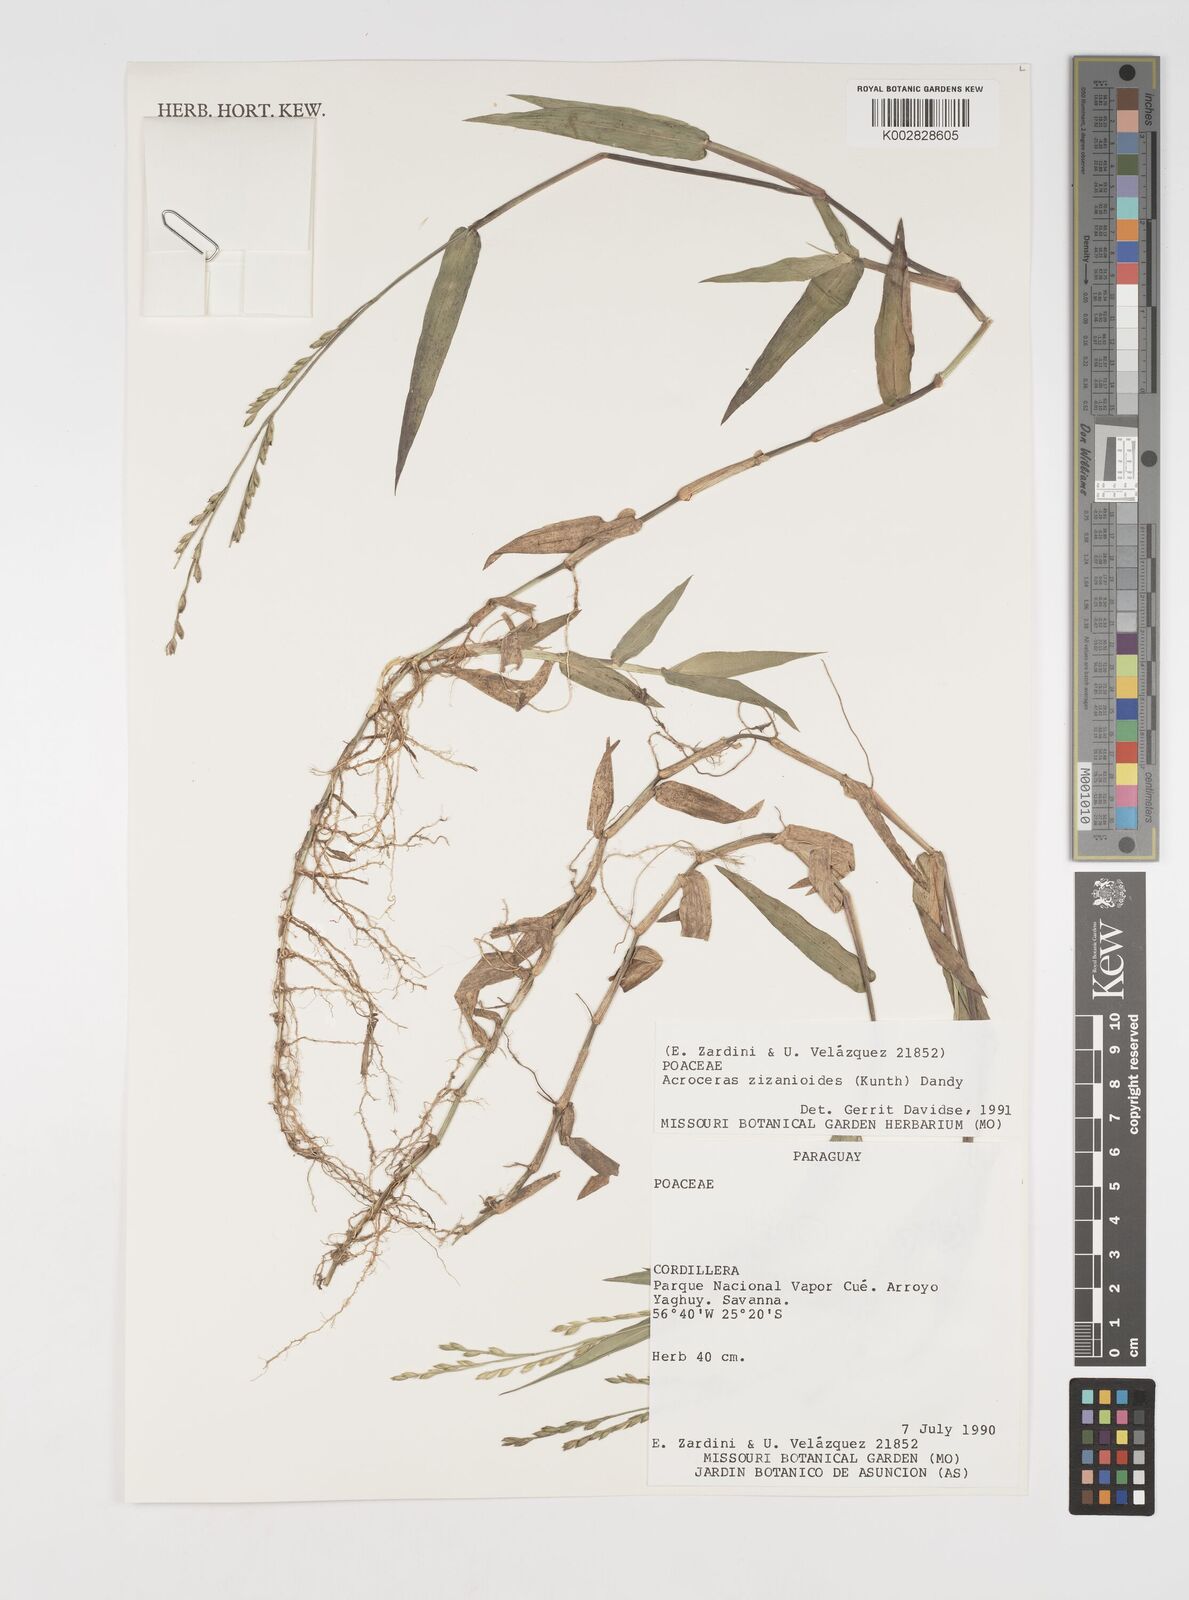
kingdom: Plantae
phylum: Tracheophyta
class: Liliopsida
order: Poales
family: Poaceae
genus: Acroceras
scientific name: Acroceras zizanioides
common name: Oat grass
